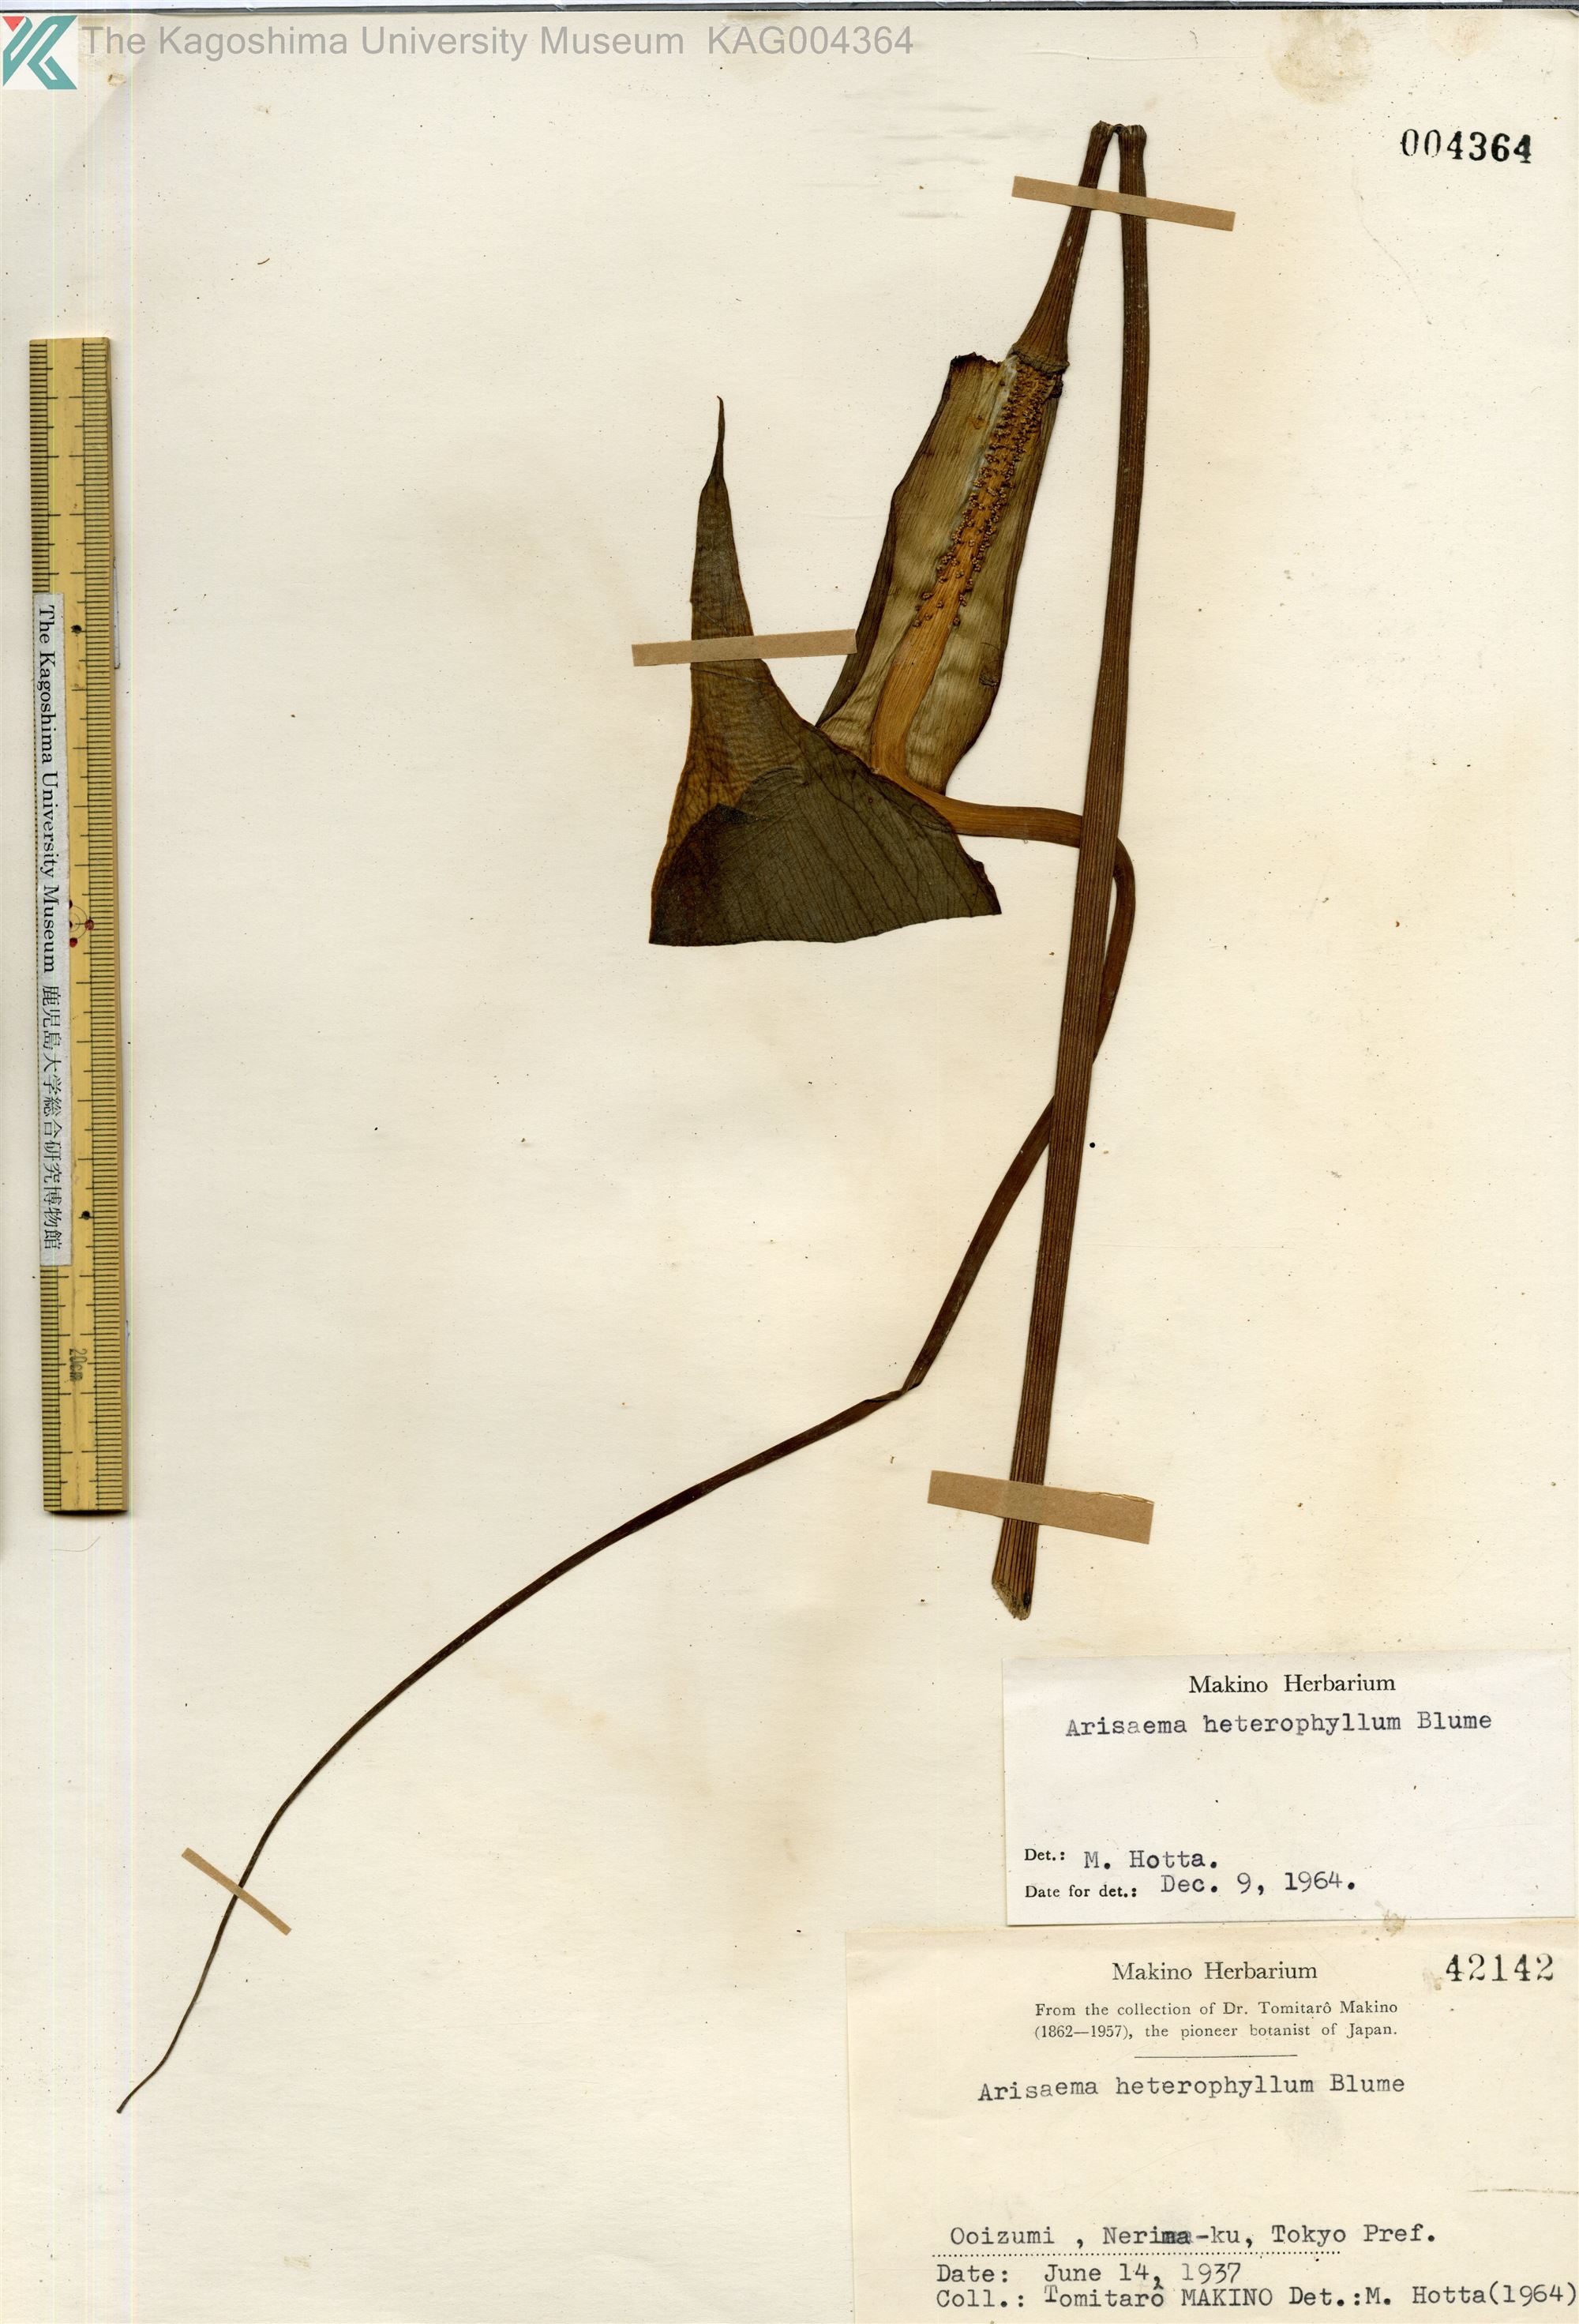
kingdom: Plantae
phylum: Tracheophyta
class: Liliopsida
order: Alismatales
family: Araceae
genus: Arisaema
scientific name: Arisaema heterophyllum
